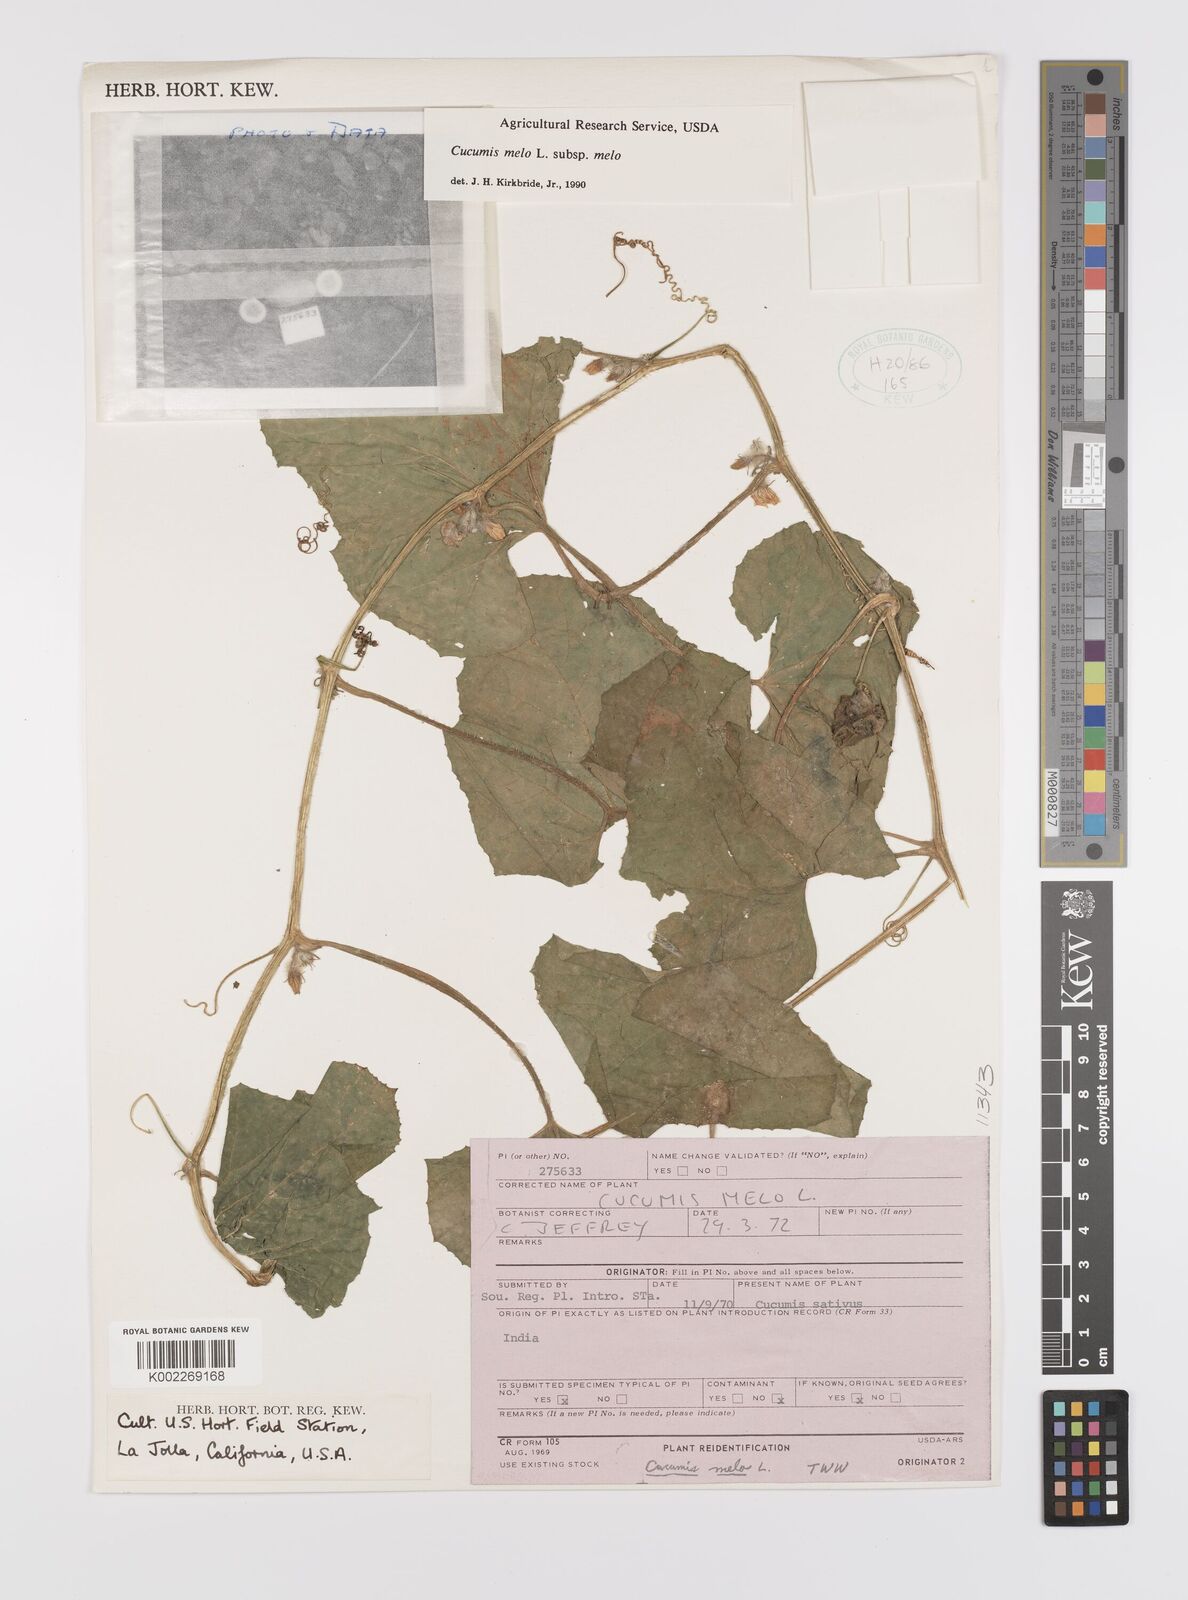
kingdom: Plantae
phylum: Tracheophyta
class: Magnoliopsida
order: Cucurbitales
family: Cucurbitaceae
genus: Cucumis
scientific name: Cucumis melo
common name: Melon
